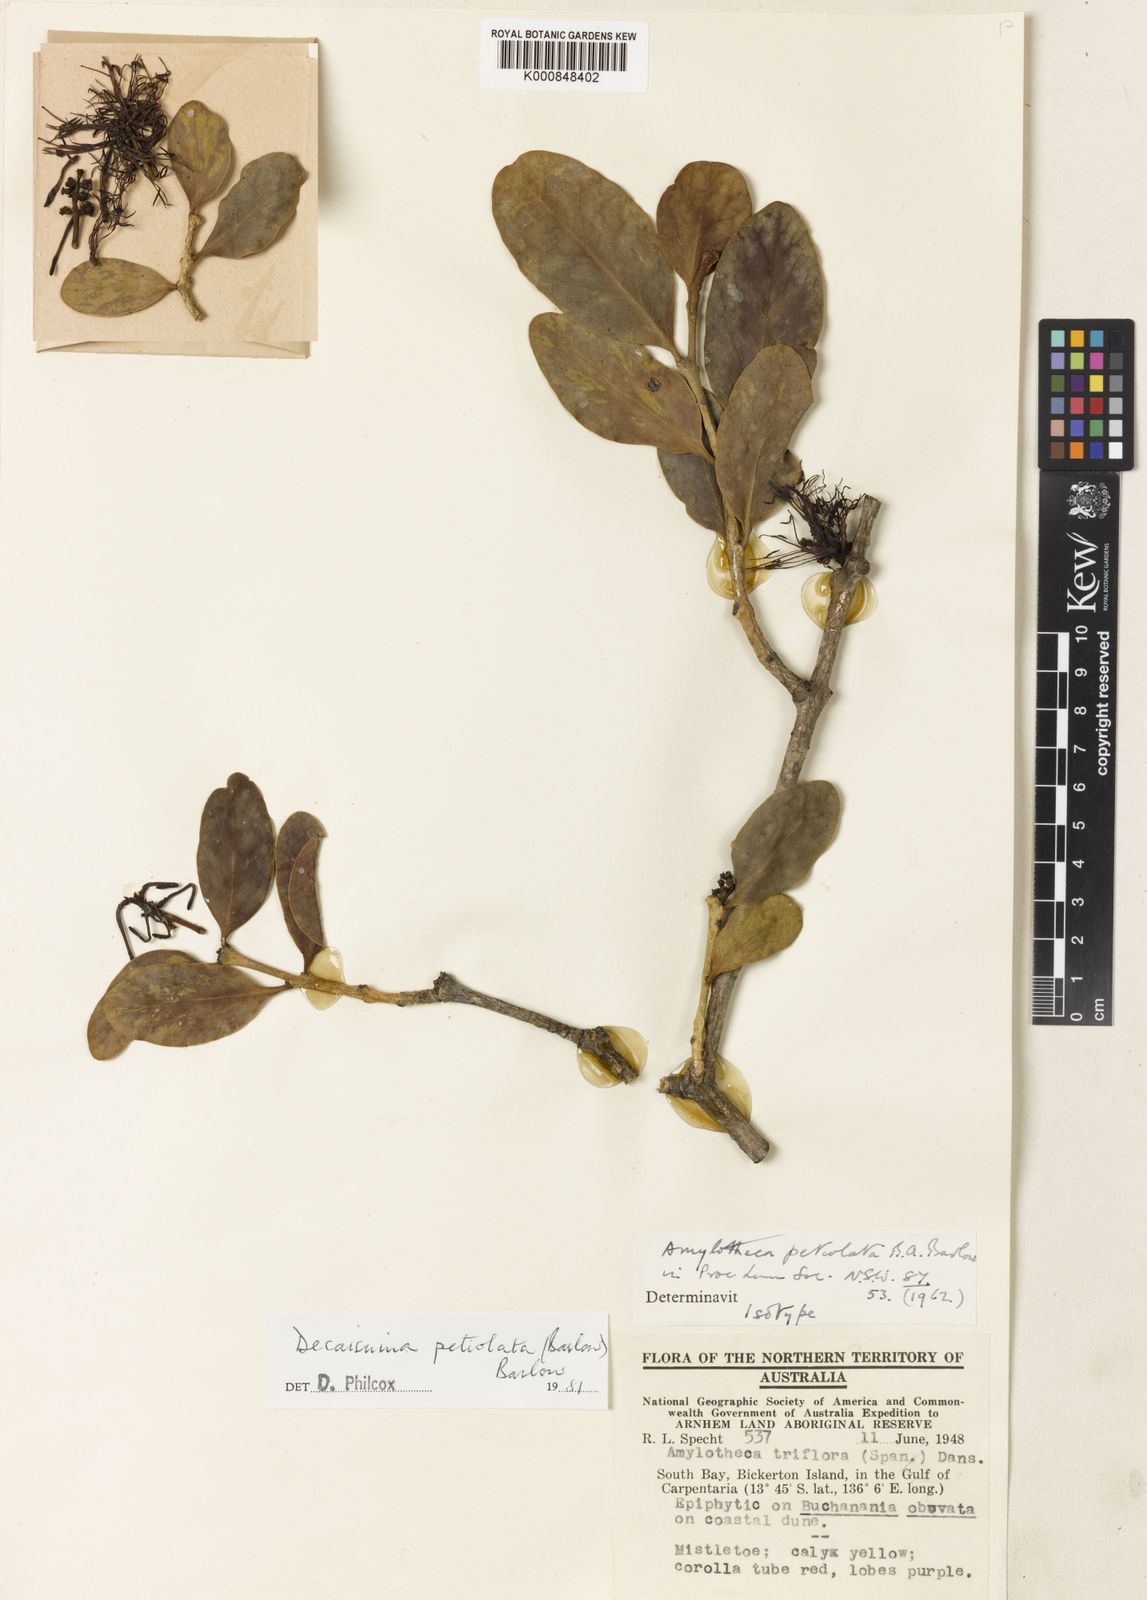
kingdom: Plantae
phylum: Tracheophyta
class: Magnoliopsida
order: Santalales
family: Loranthaceae
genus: Decaisnina
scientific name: Decaisnina petiolata
